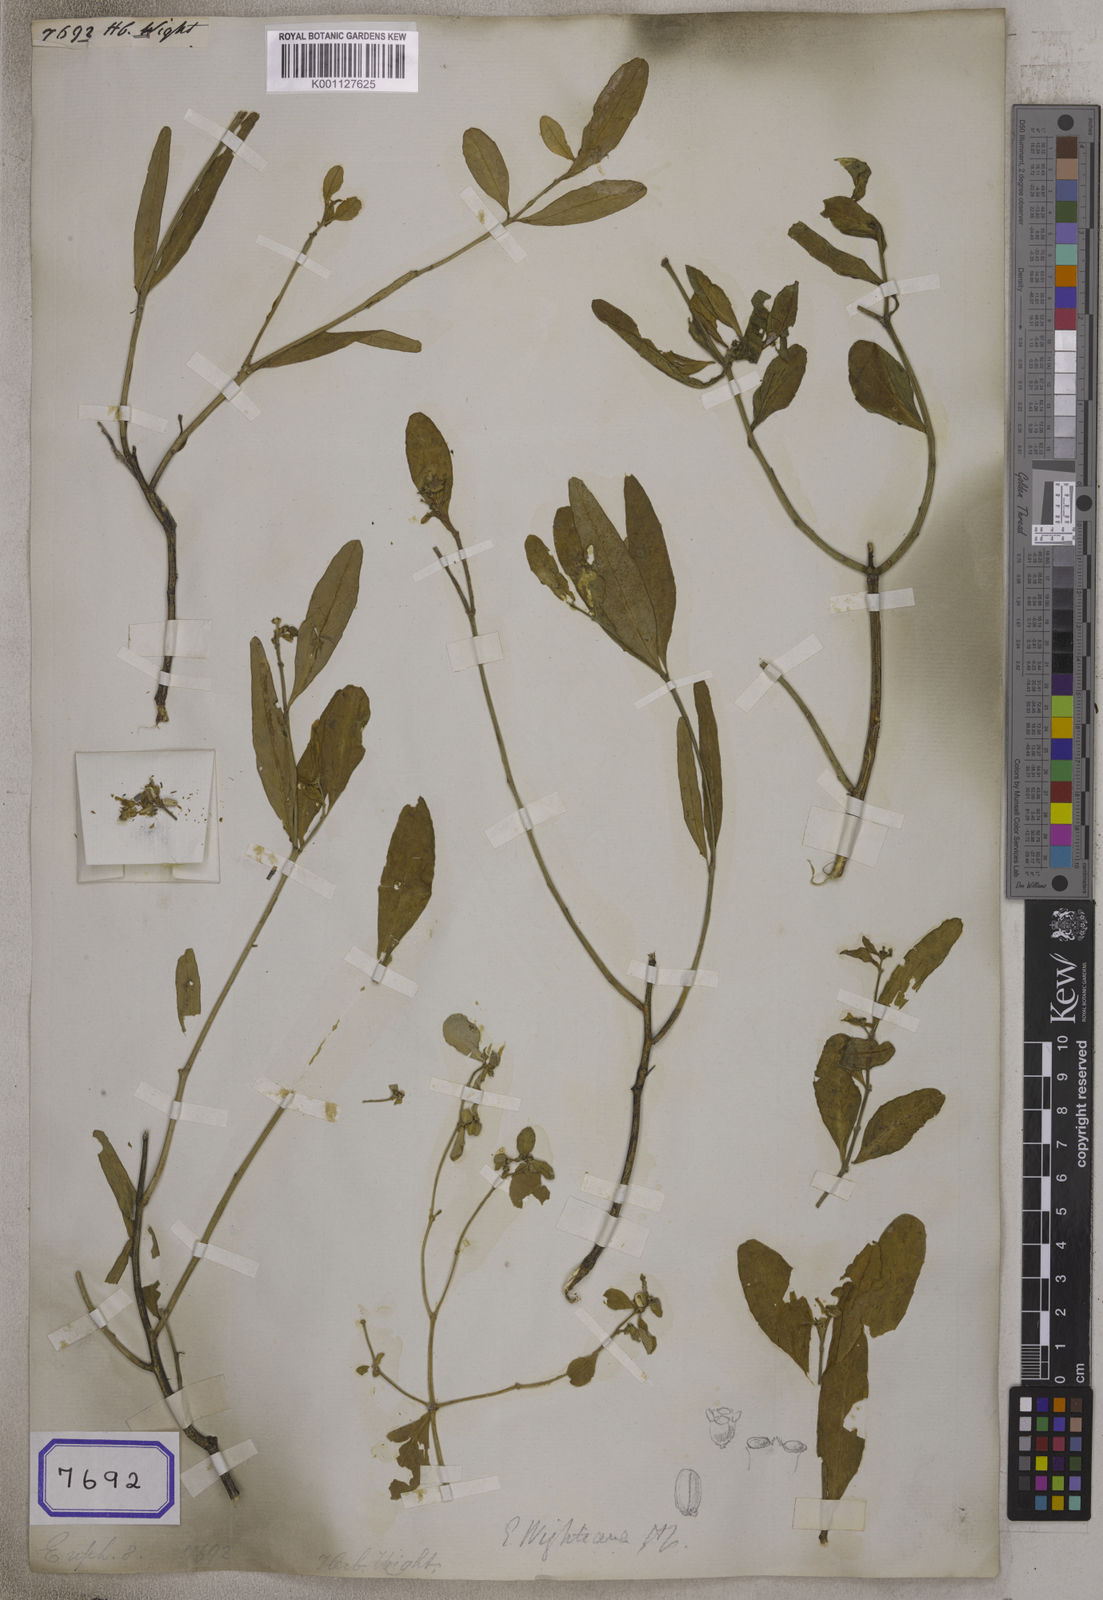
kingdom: Plantae
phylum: Tracheophyta
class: Magnoliopsida
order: Malpighiales
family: Euphorbiaceae
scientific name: Euphorbiaceae
